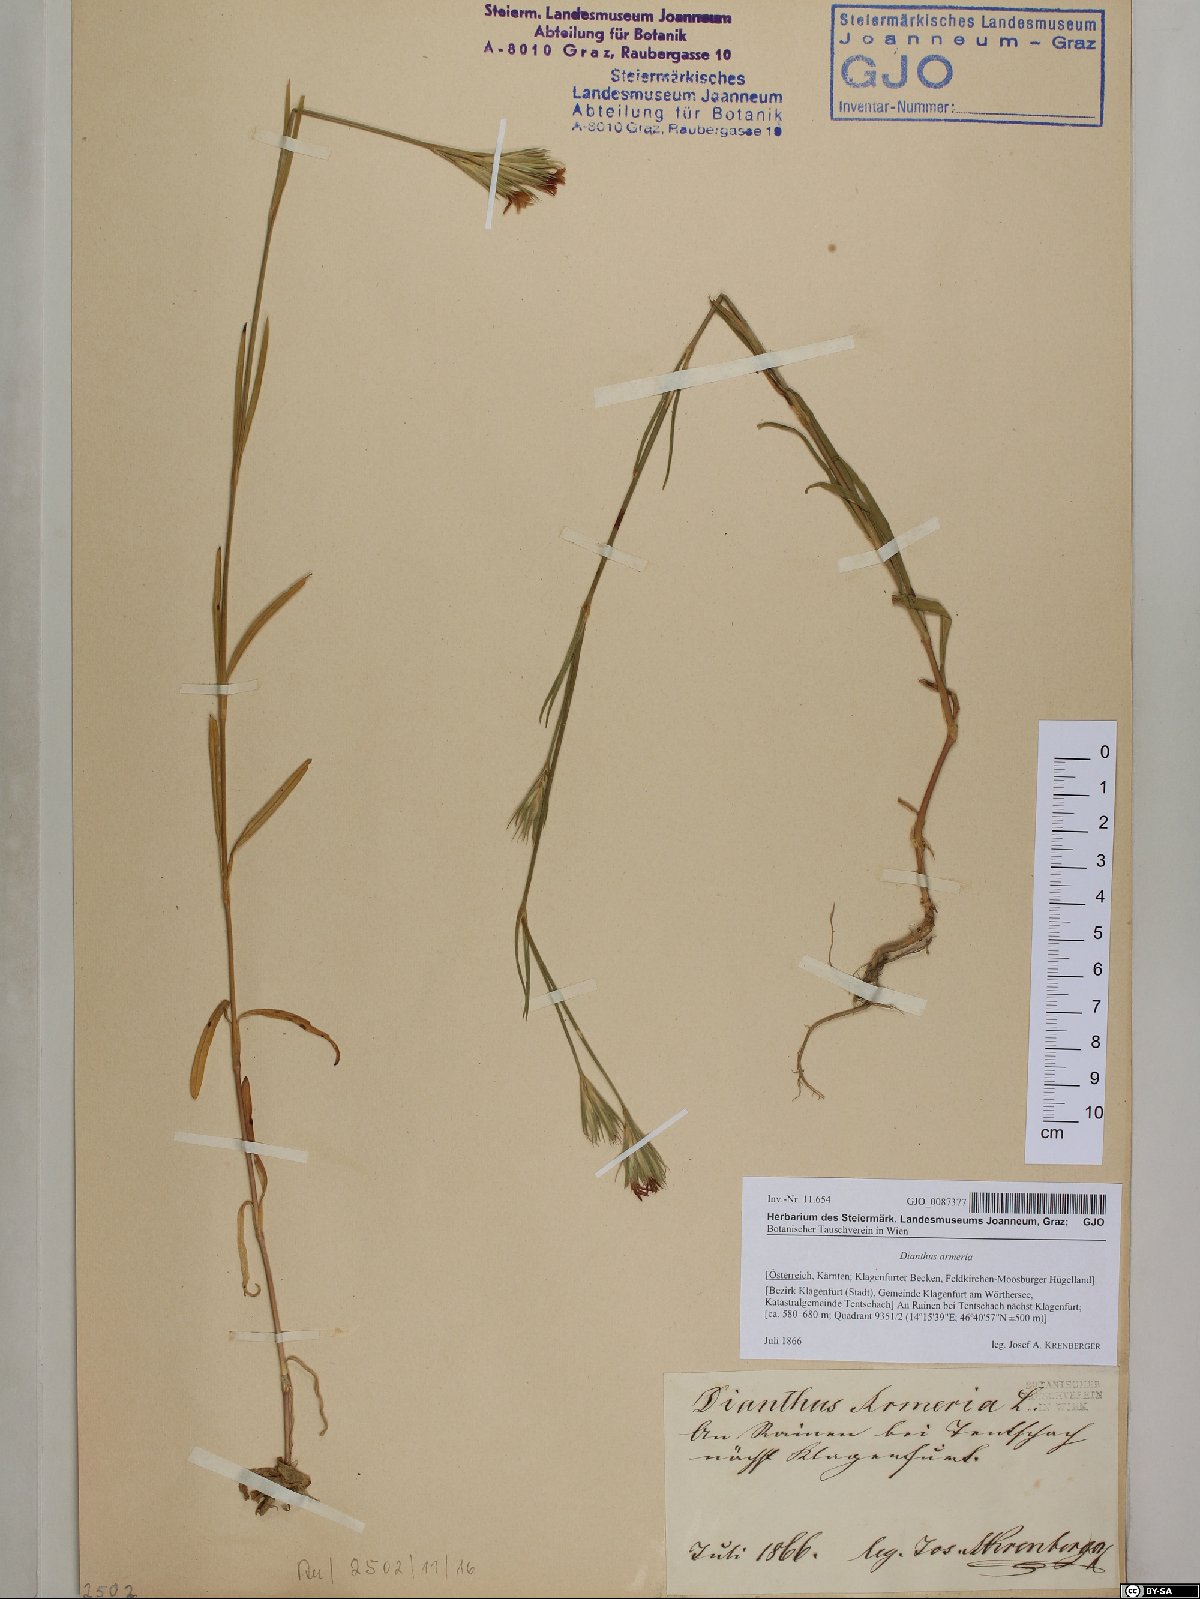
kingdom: Plantae
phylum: Tracheophyta
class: Magnoliopsida
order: Caryophyllales
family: Caryophyllaceae
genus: Dianthus
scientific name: Dianthus armeria
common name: Deptford pink
